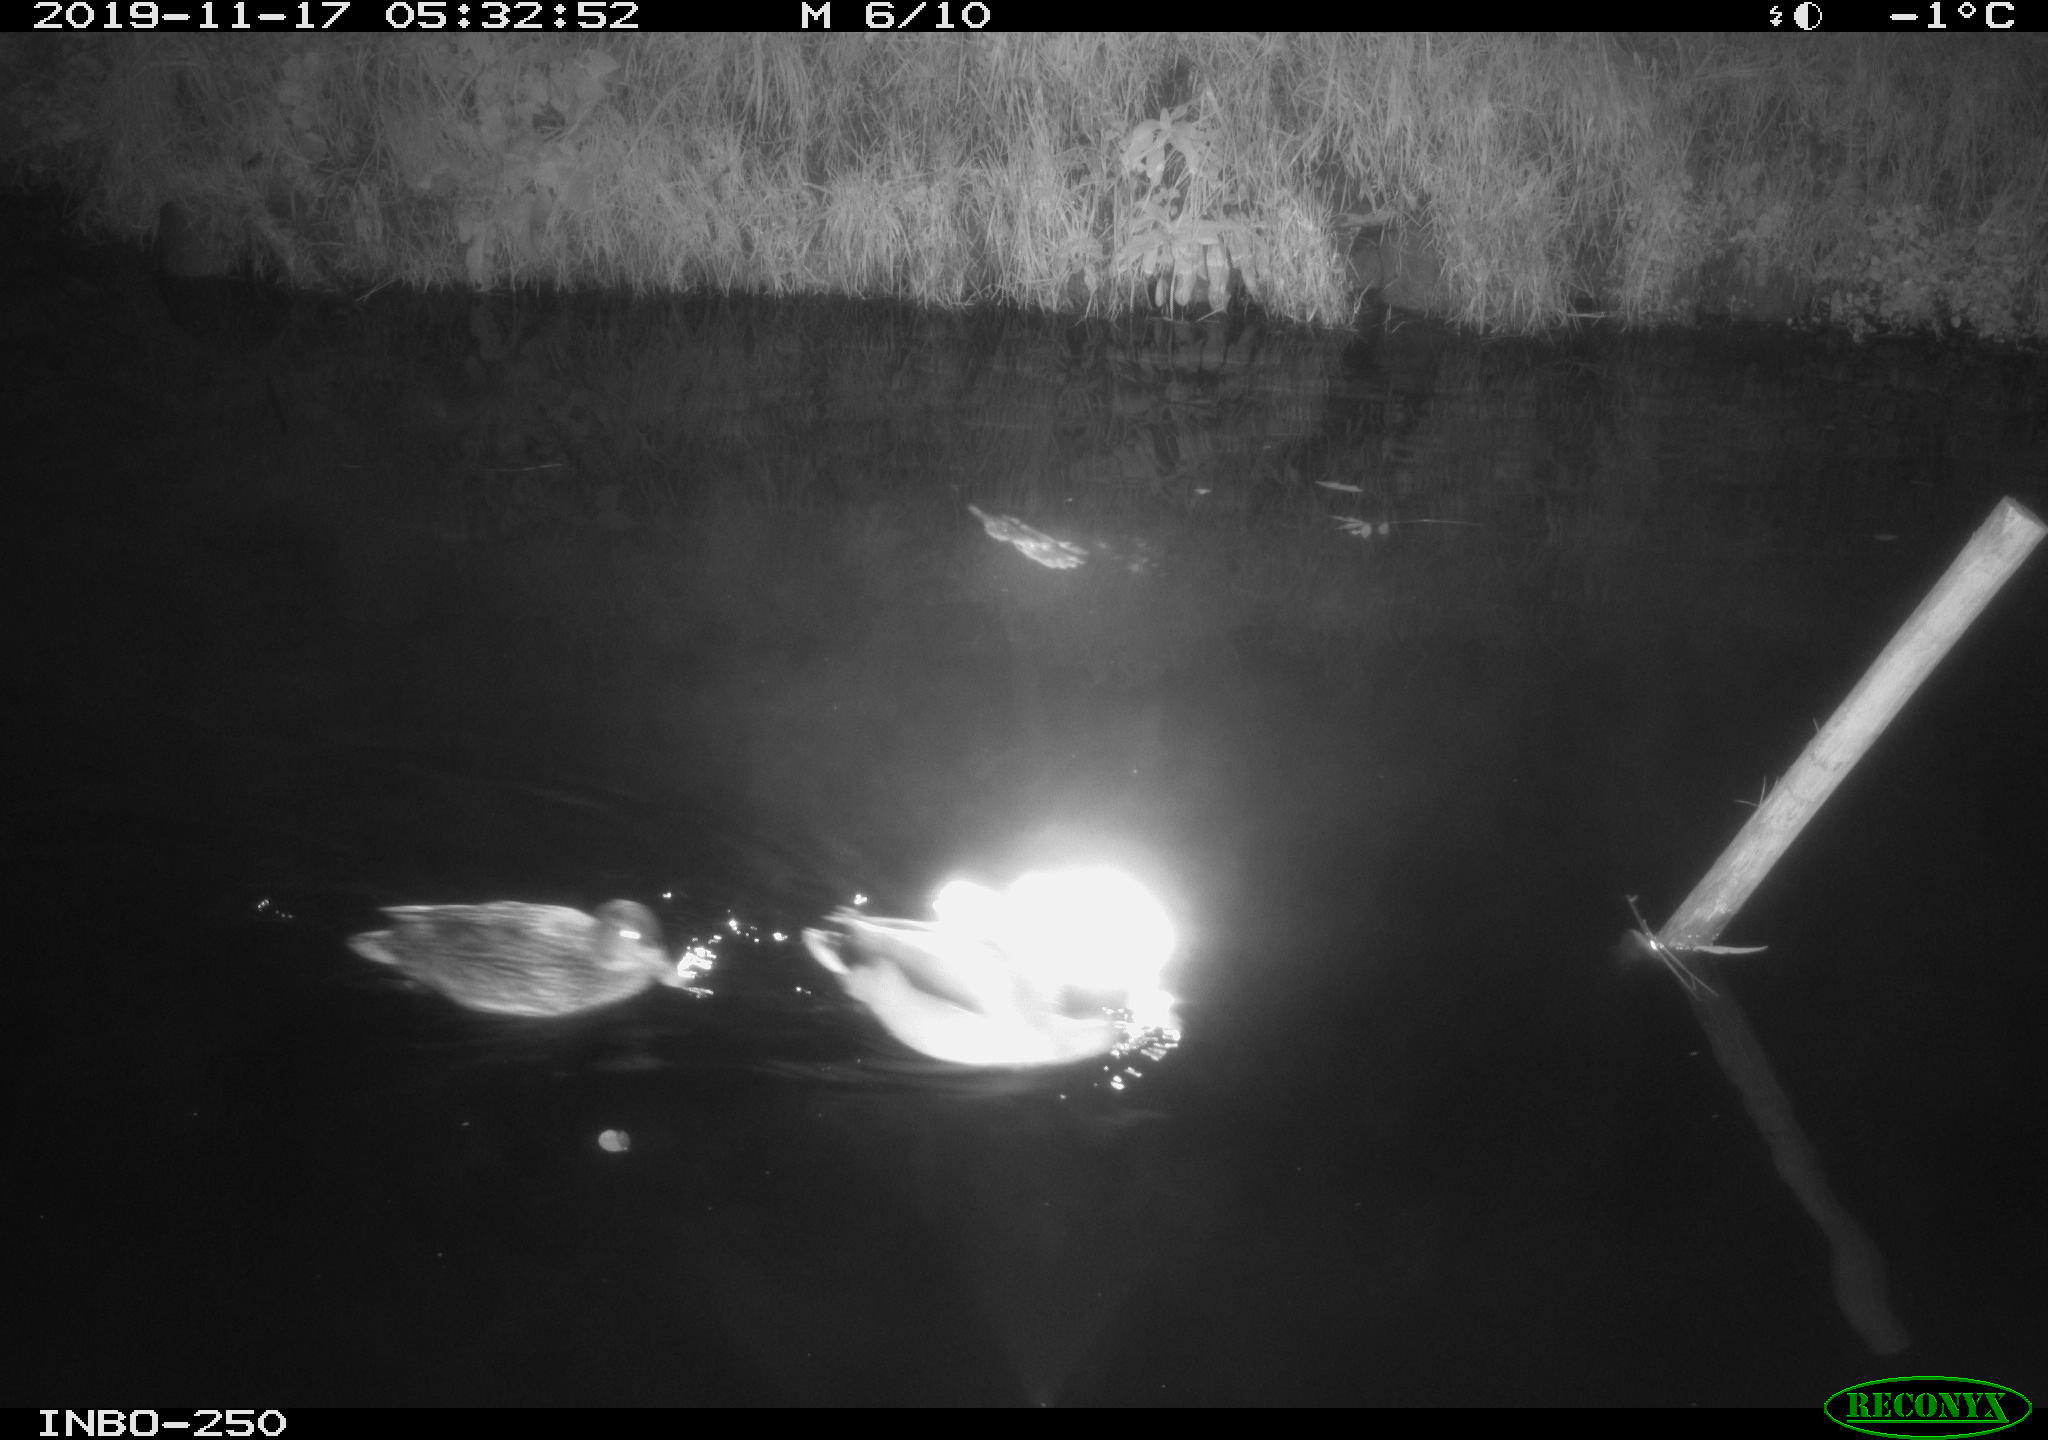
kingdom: Animalia
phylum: Chordata
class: Aves
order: Anseriformes
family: Anatidae
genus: Anas
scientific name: Anas platyrhynchos
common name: Mallard
